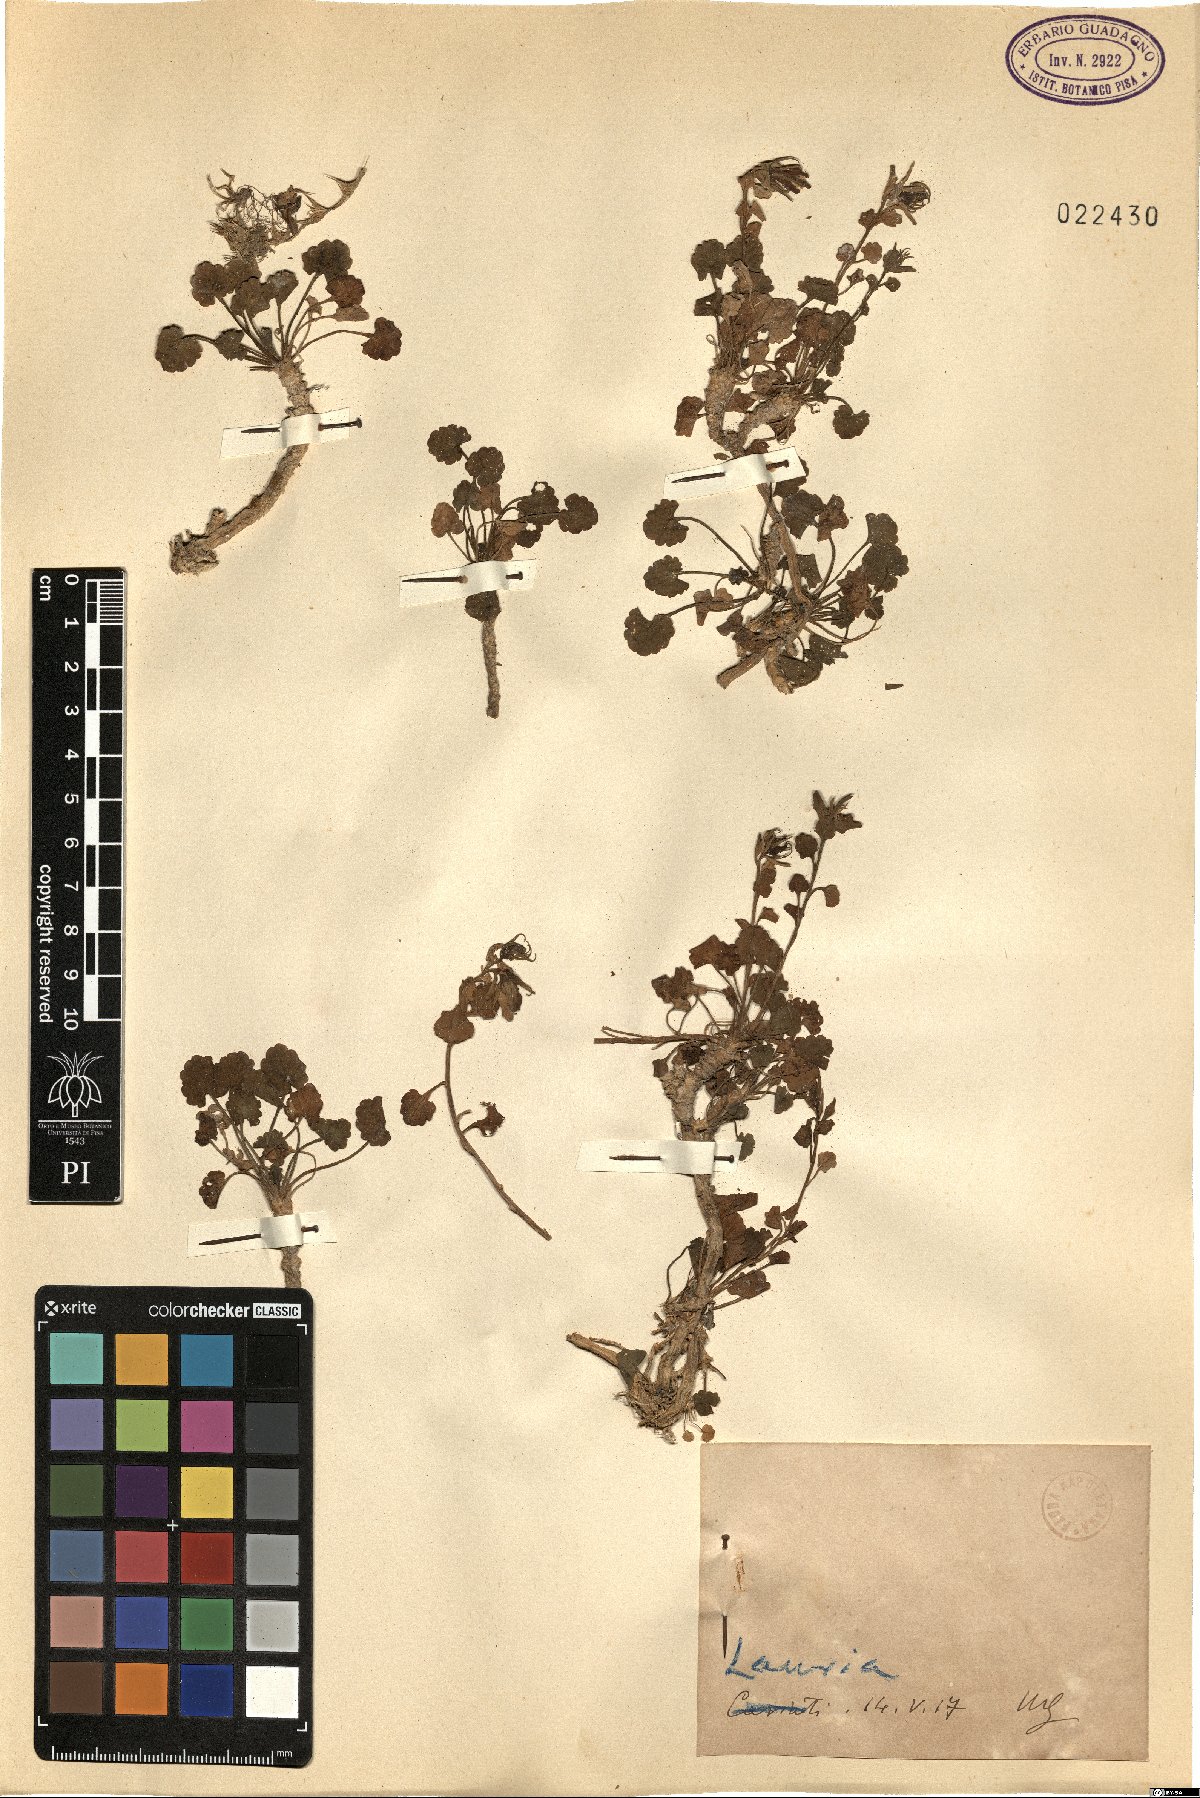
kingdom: Plantae
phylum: Tracheophyta
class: Magnoliopsida
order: Asterales
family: Campanulaceae
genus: Campanula
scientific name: Campanula
